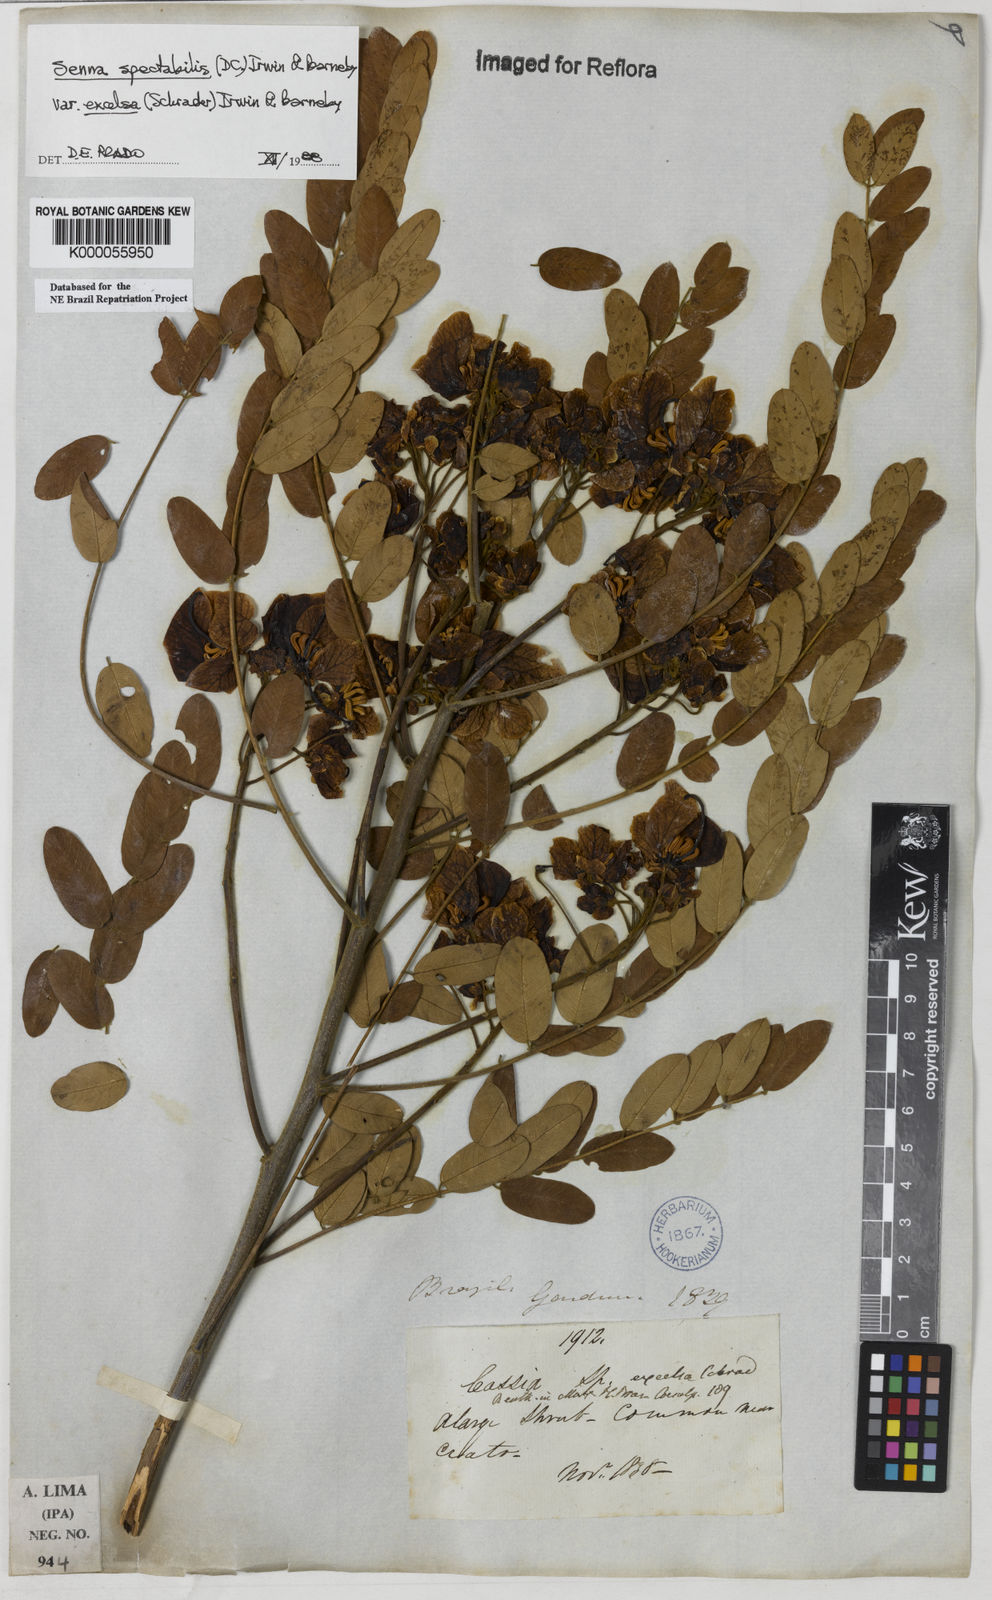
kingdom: Plantae
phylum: Tracheophyta
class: Magnoliopsida
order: Fabales
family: Fabaceae
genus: Senna
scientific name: Senna spectabilis
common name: Casia amarilla
